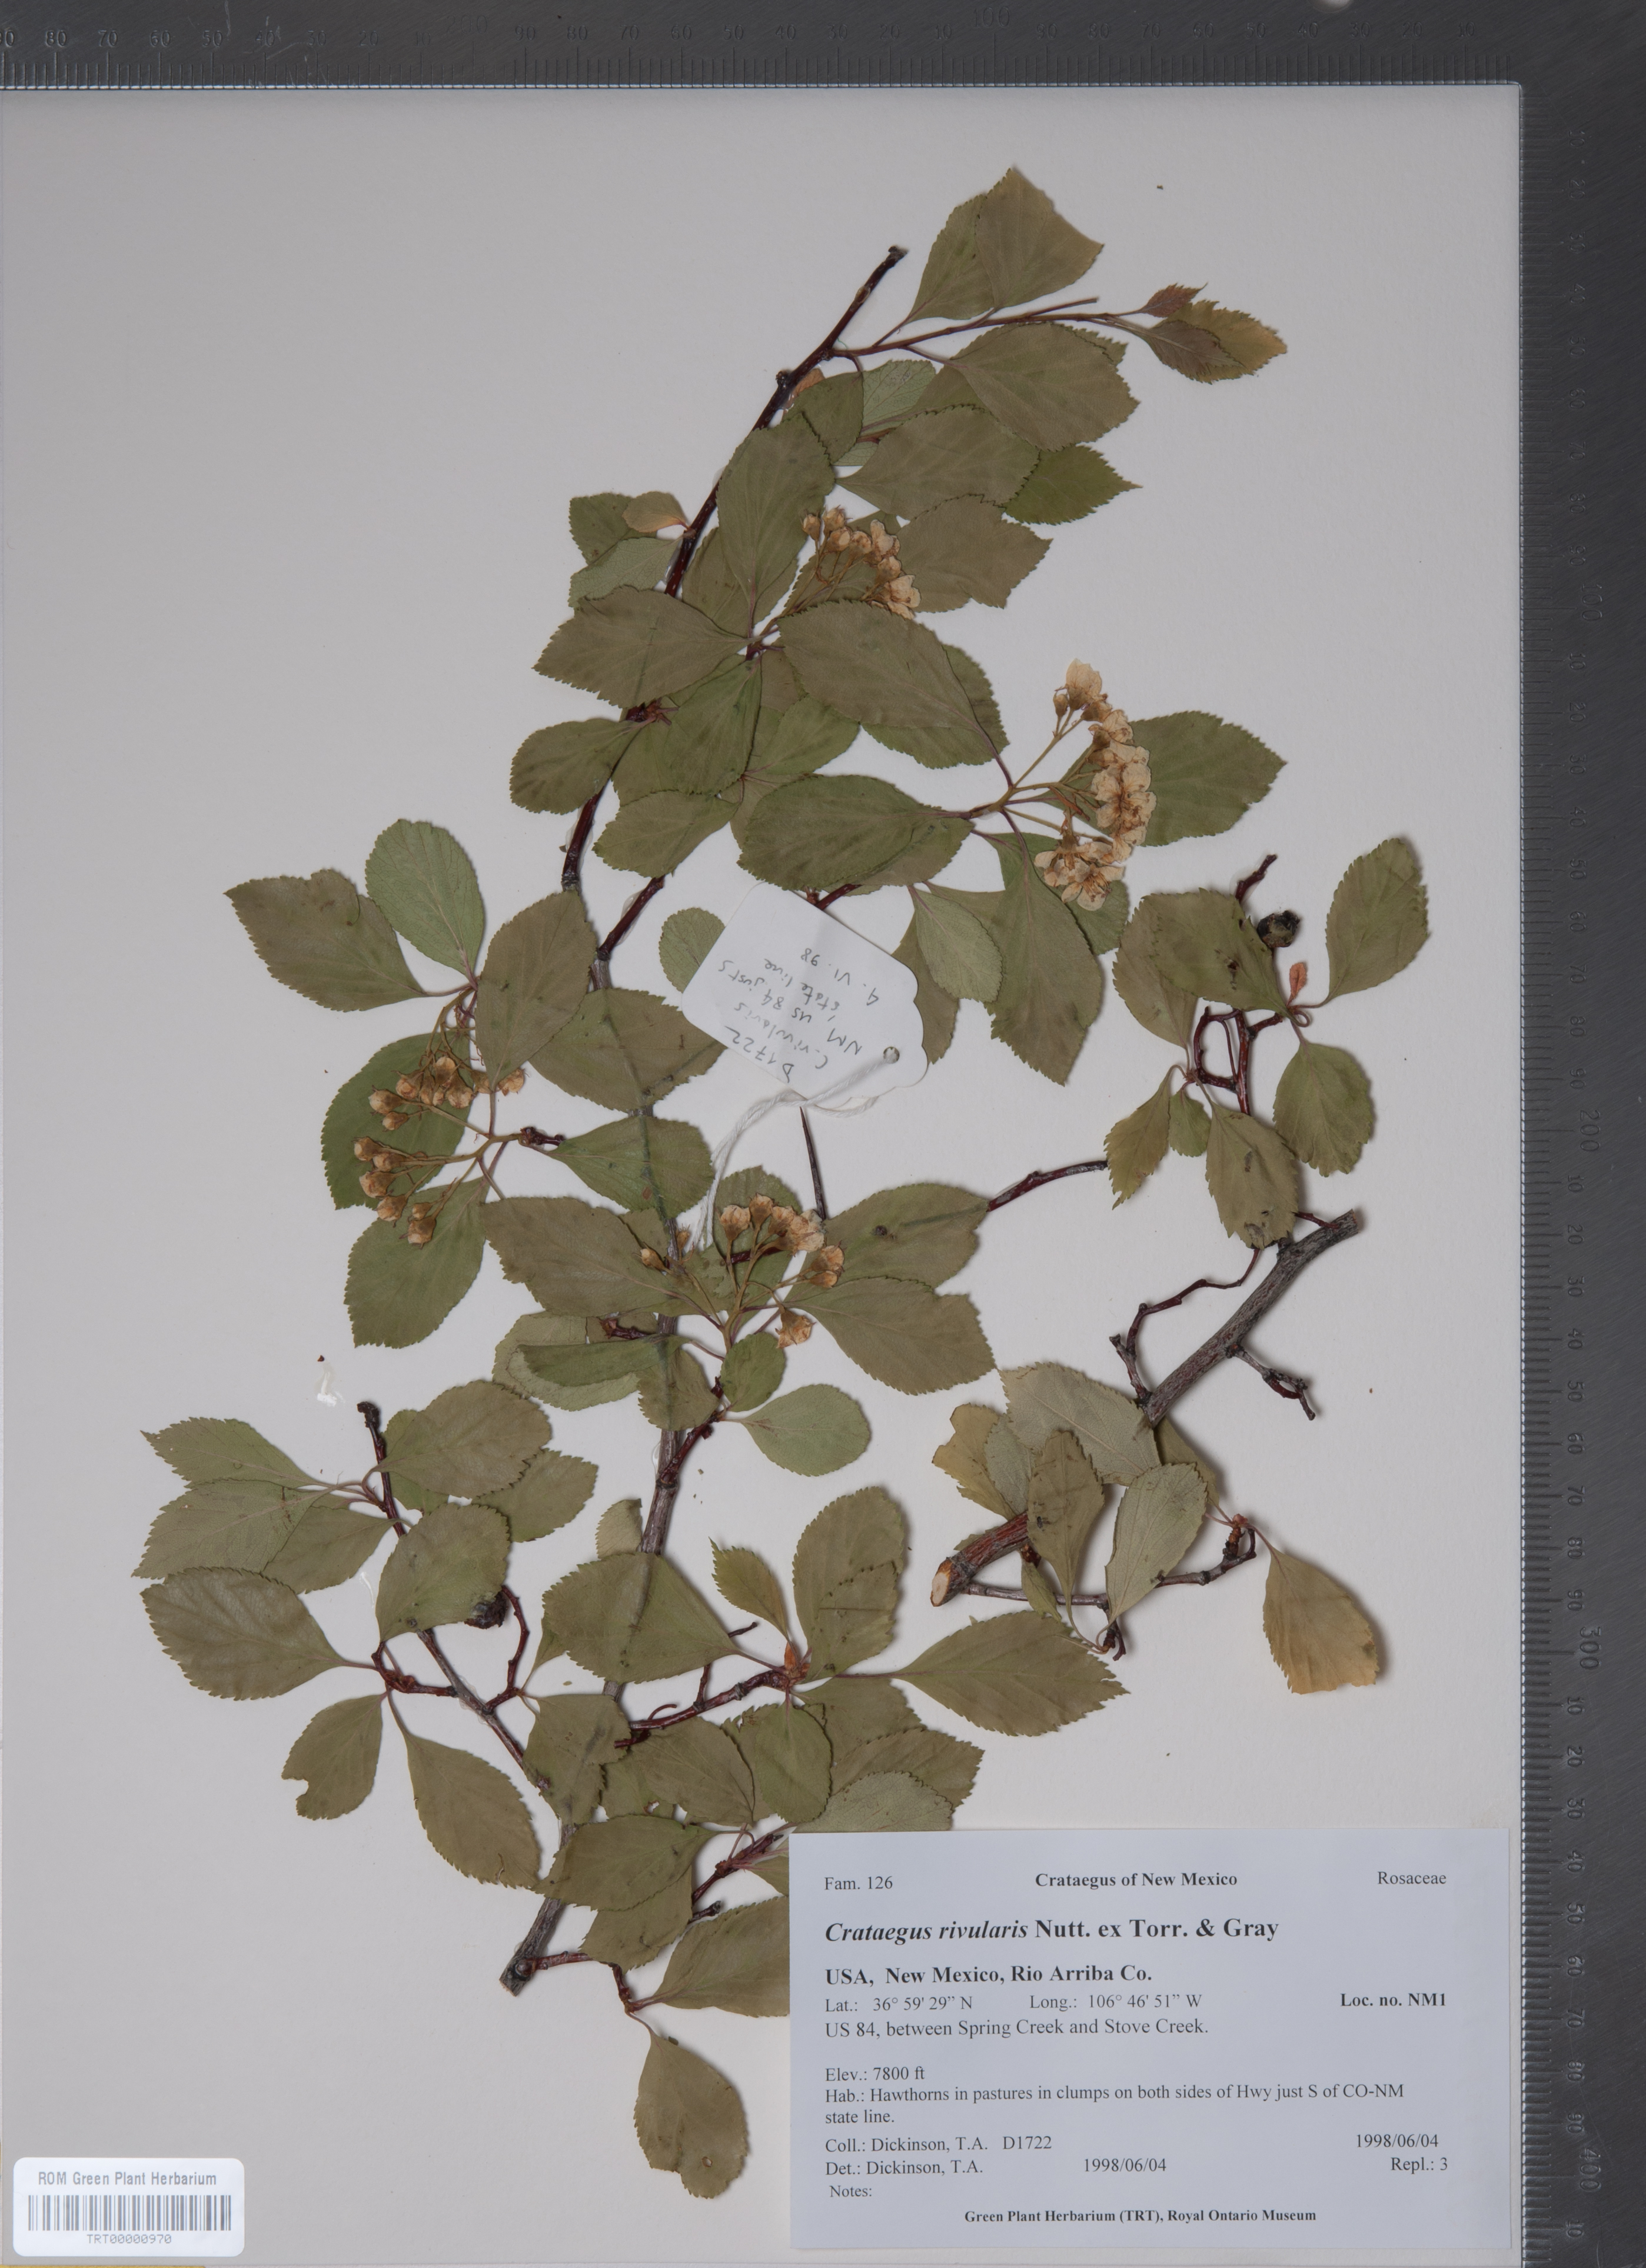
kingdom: Plantae
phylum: Tracheophyta
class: Magnoliopsida
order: Rosales
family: Rosaceae
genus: Crataegus
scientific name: Crataegus rivularis
